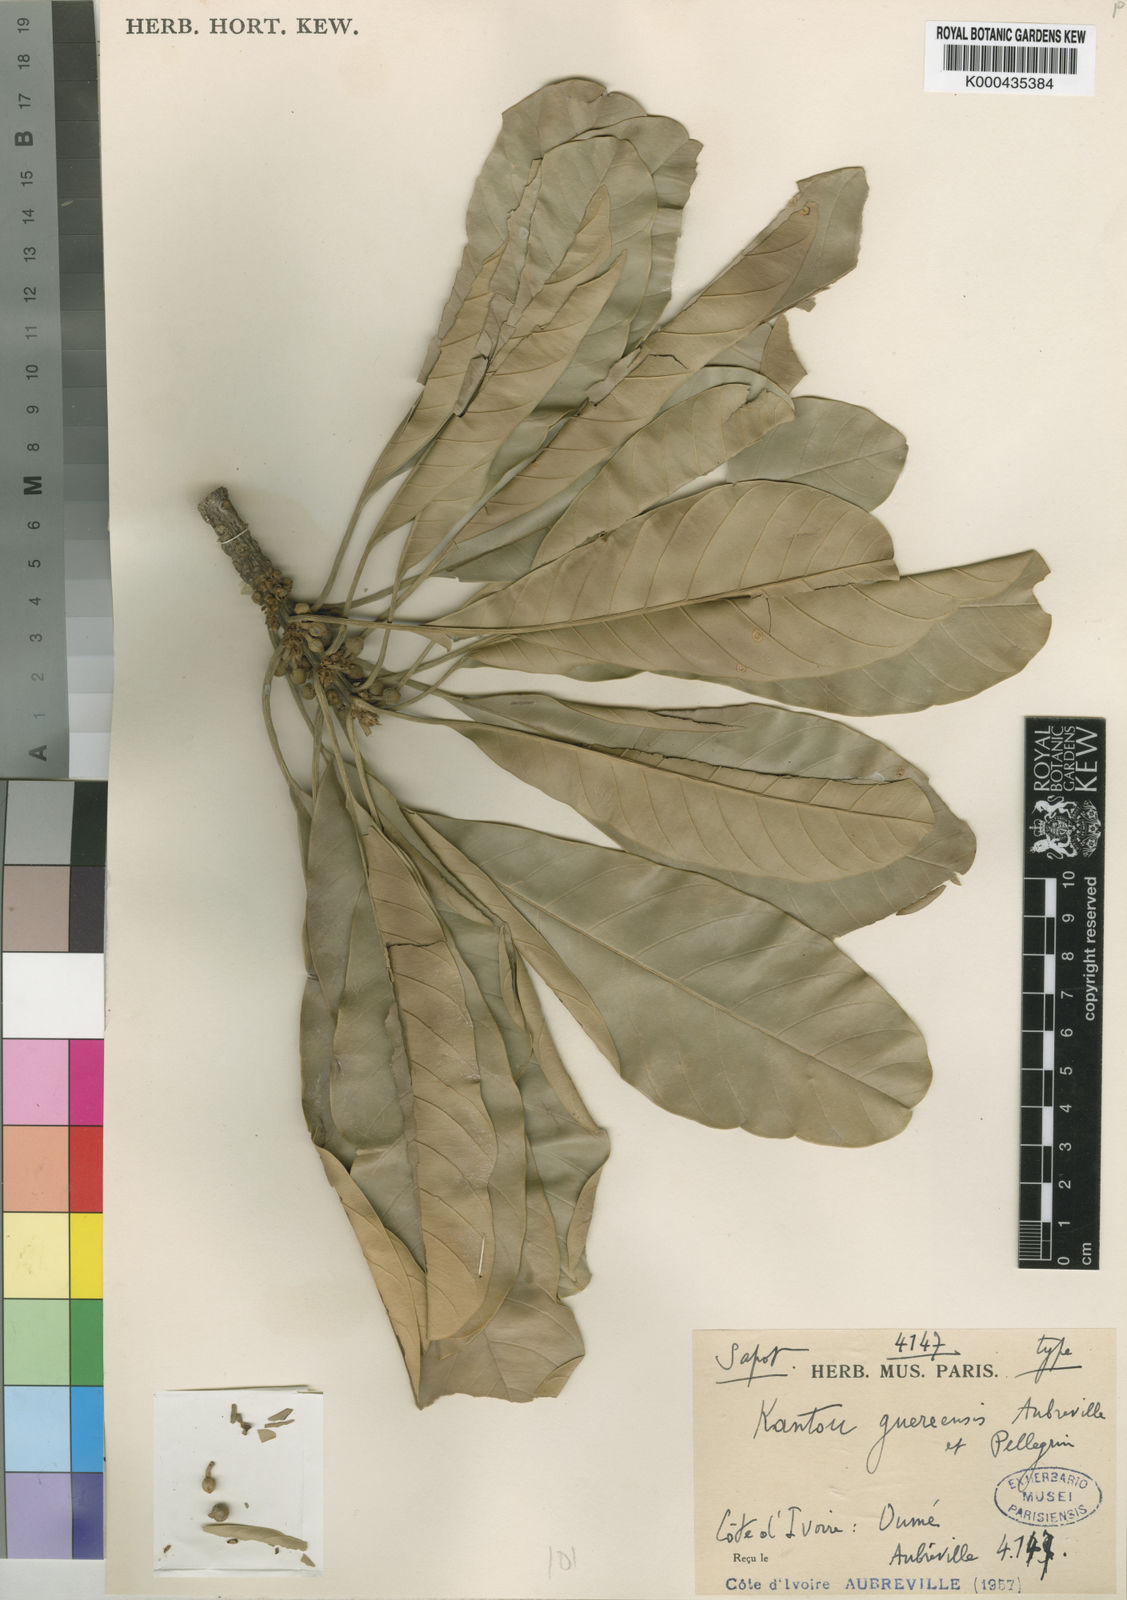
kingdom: Plantae
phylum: Tracheophyta
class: Magnoliopsida
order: Ericales
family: Sapotaceae
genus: Inhambanella
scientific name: Inhambanella
